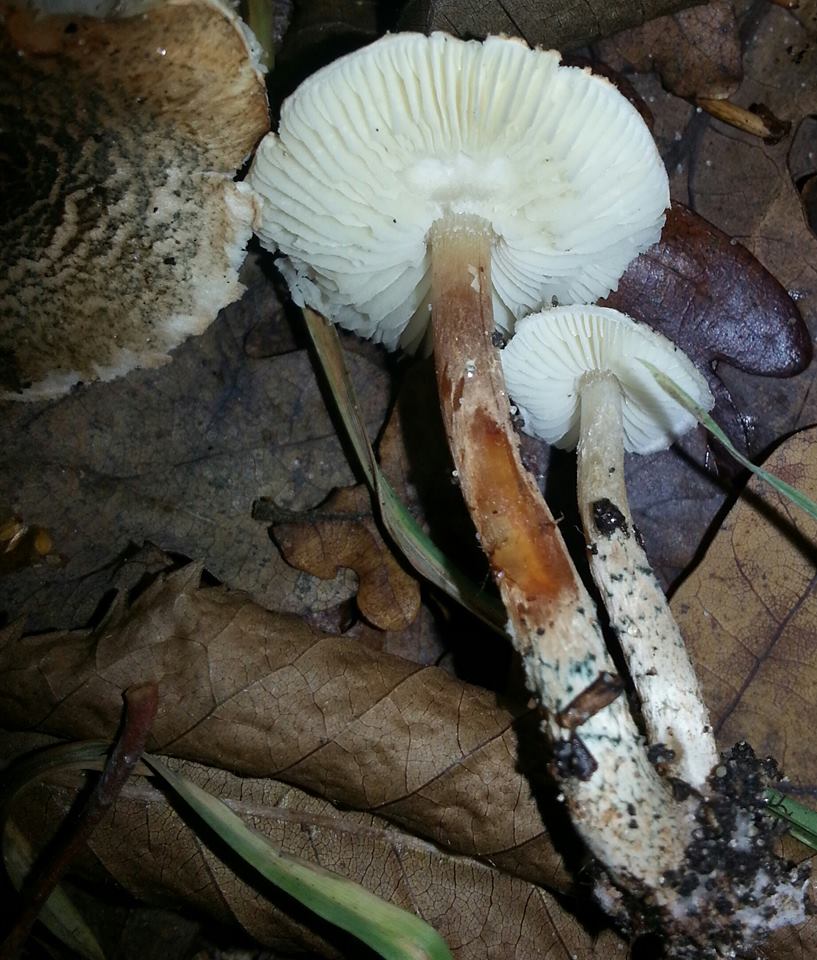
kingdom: Fungi
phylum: Basidiomycota
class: Agaricomycetes
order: Agaricales
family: Agaricaceae
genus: Lepiota
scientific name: Lepiota grangei
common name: grønskællet parasolhat
